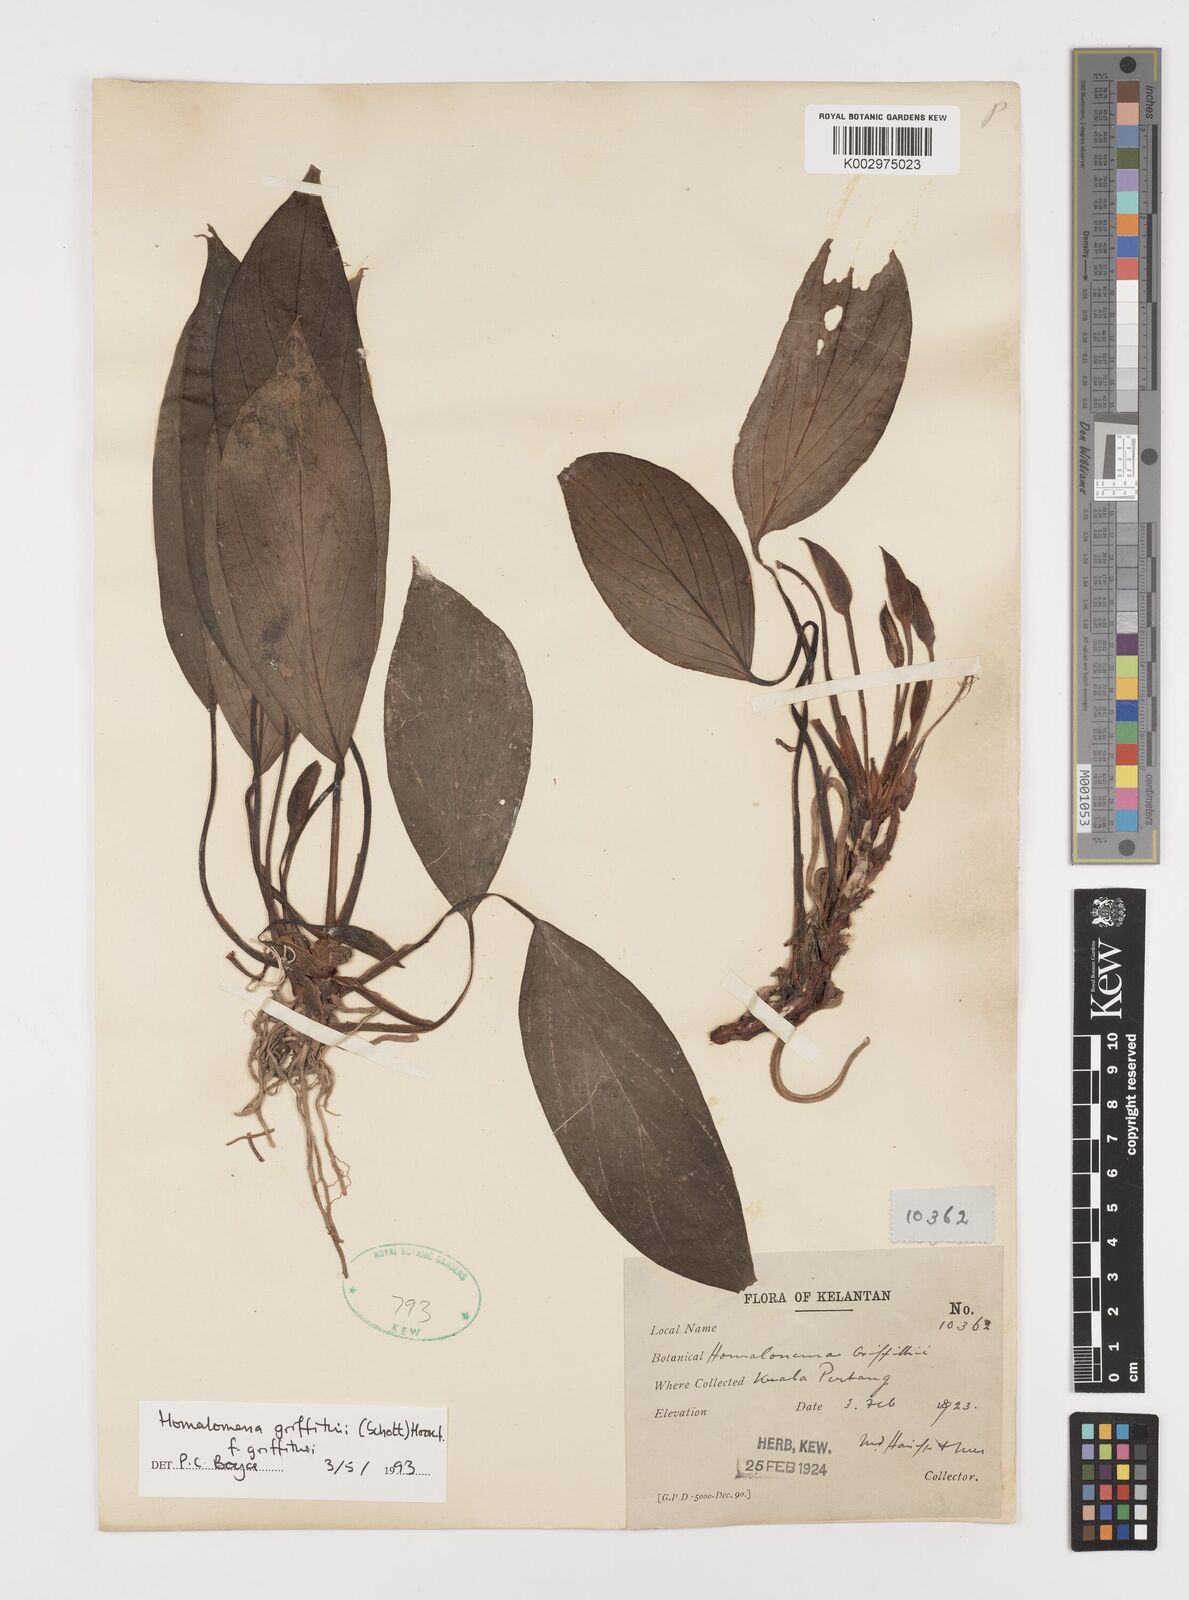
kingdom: Plantae
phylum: Tracheophyta
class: Liliopsida
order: Alismatales
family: Araceae
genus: Homalomena
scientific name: Homalomena griffithii
